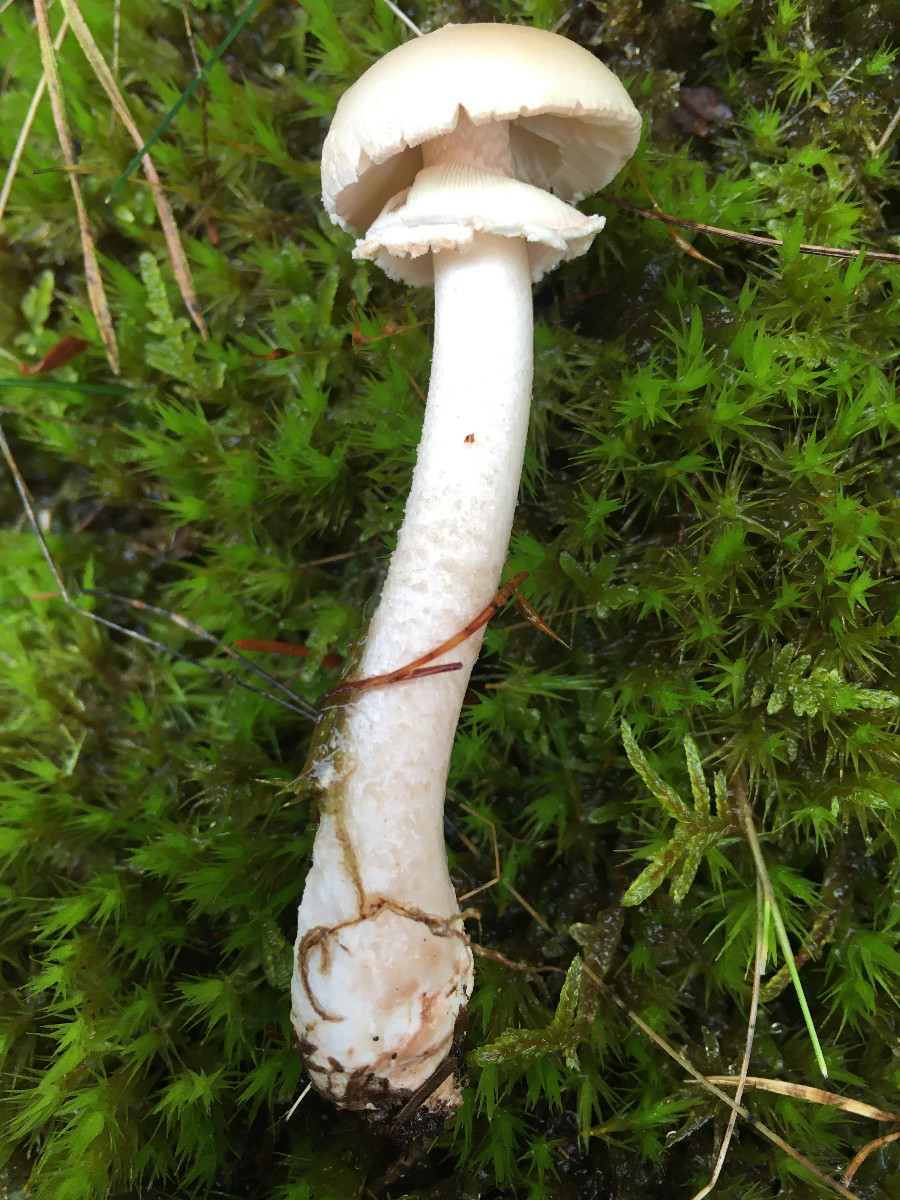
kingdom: Fungi
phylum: Basidiomycota
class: Agaricomycetes
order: Agaricales
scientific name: Agaricales
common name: champignonordenen
